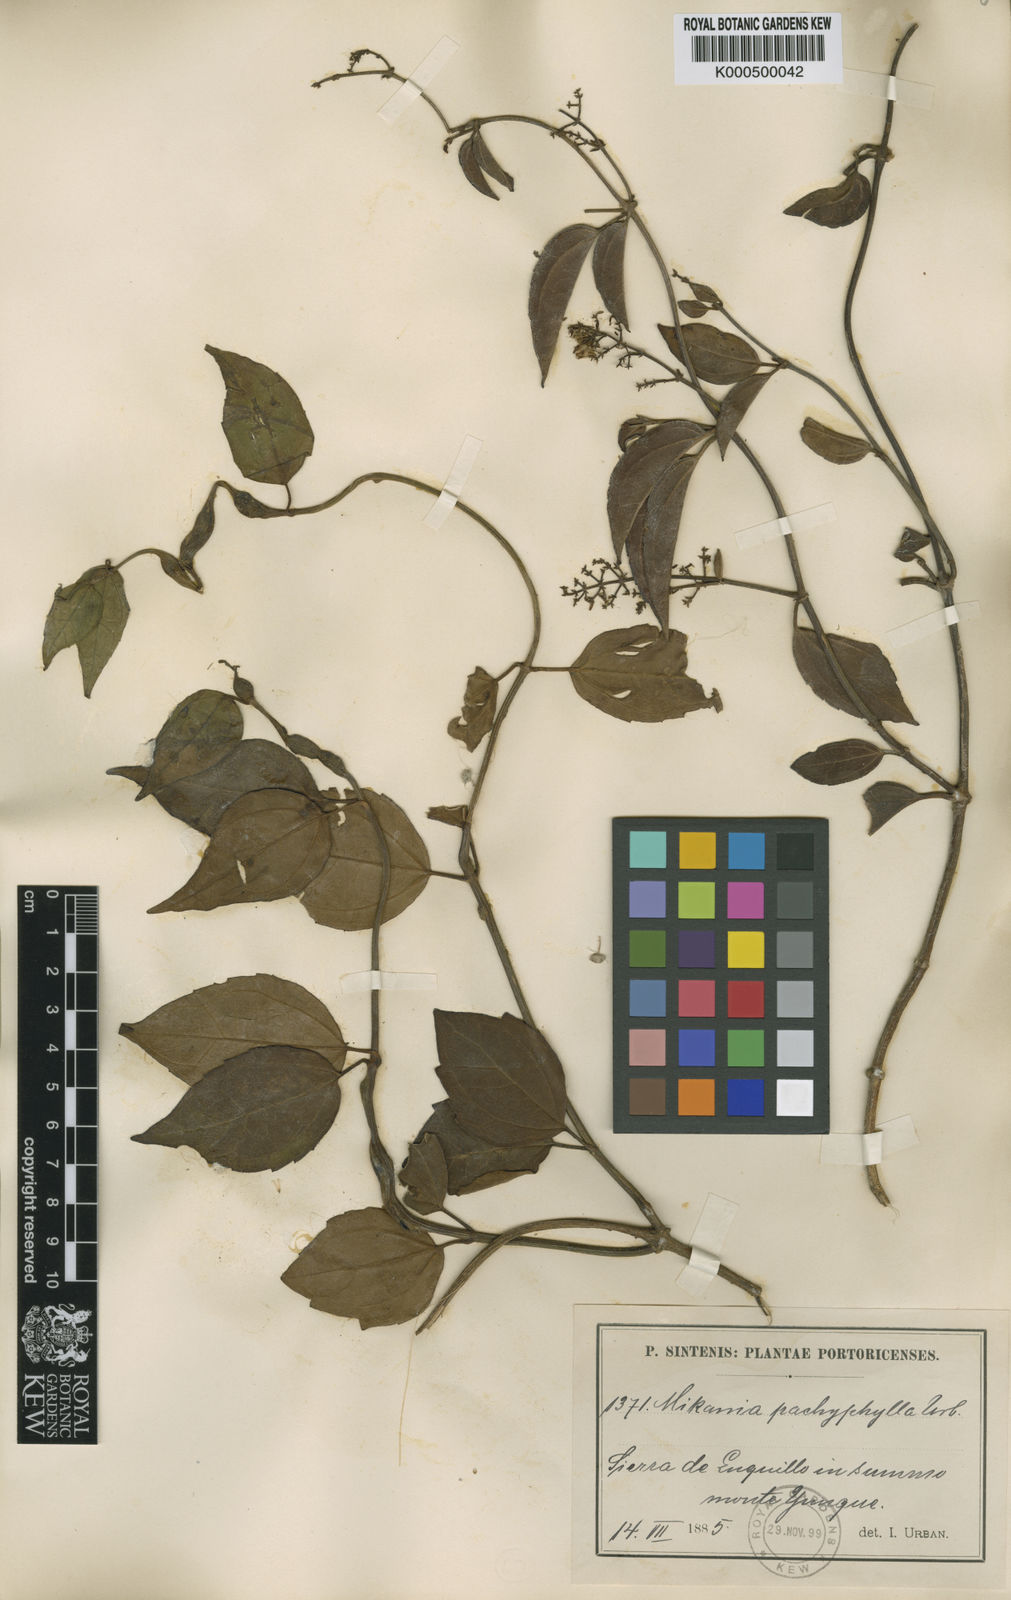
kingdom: Plantae
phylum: Tracheophyta
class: Magnoliopsida
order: Asterales
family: Asteraceae
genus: Mikania
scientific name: Mikania pachyphylla
